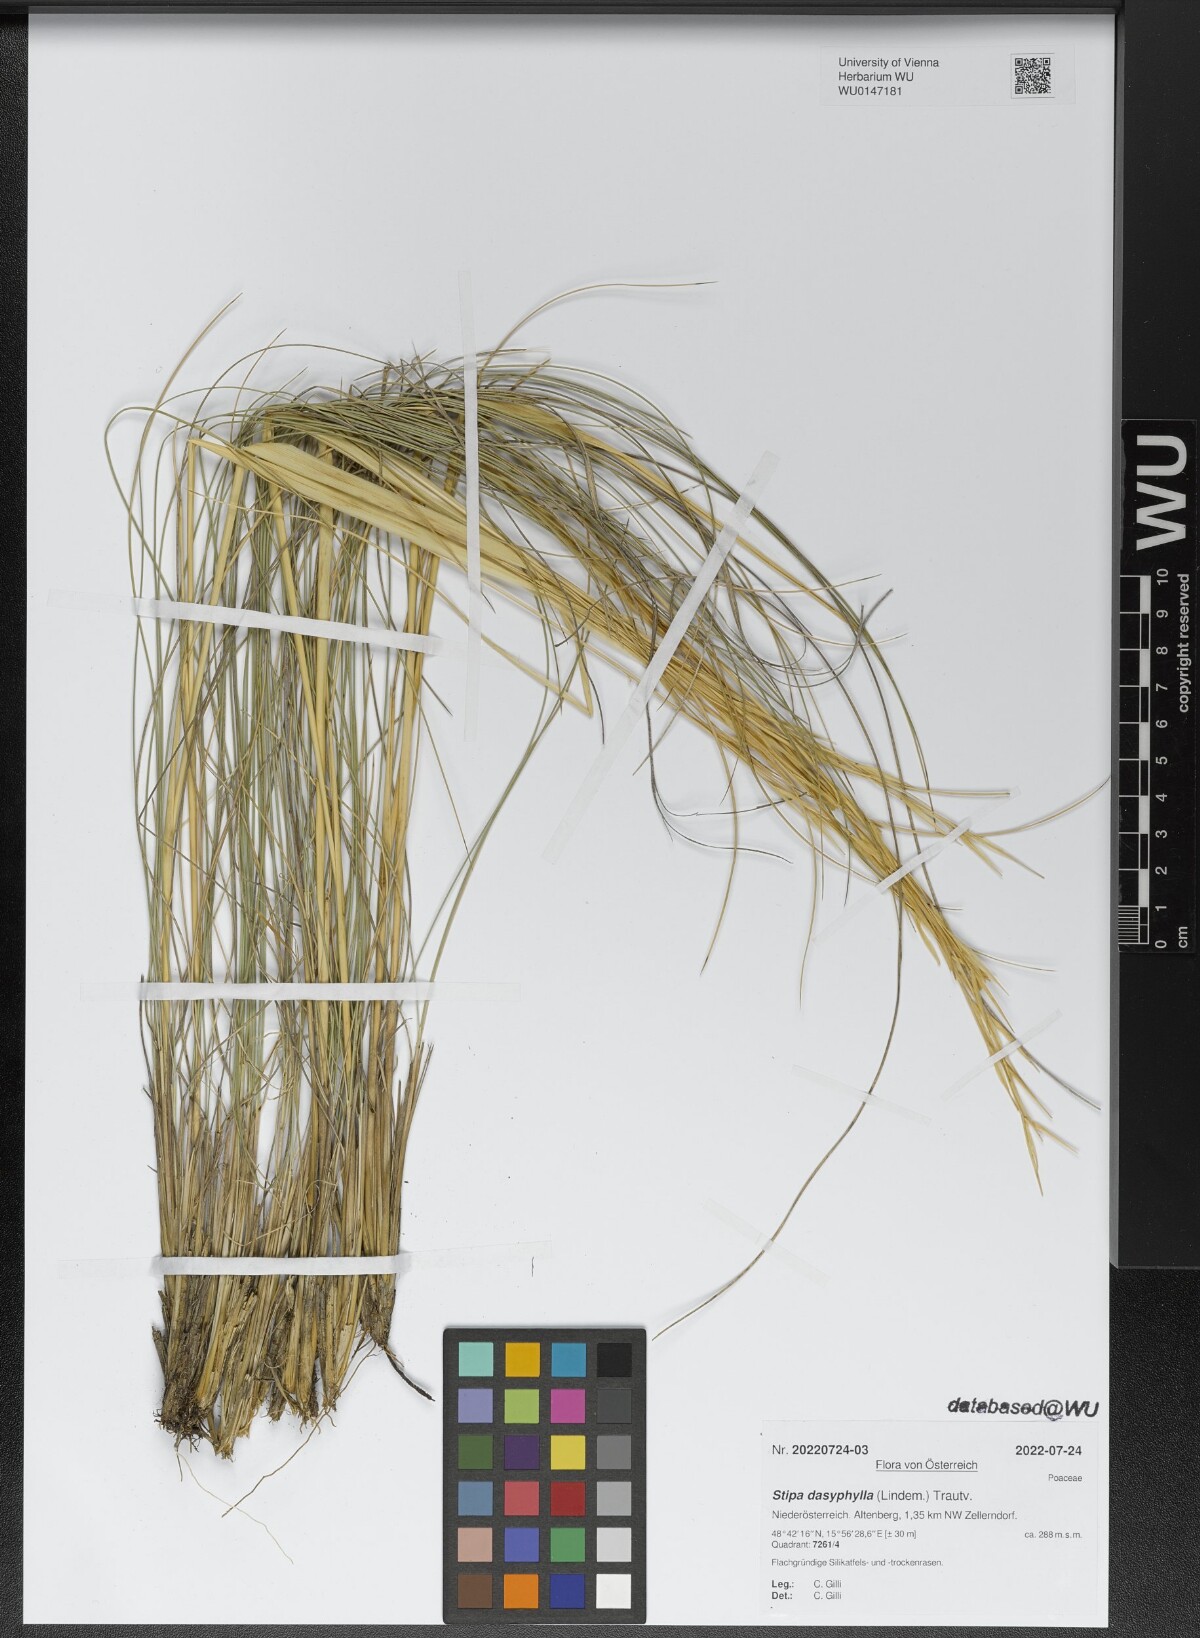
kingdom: Plantae
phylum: Tracheophyta
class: Liliopsida
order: Poales
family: Poaceae
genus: Stipa
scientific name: Stipa dasyphylla
